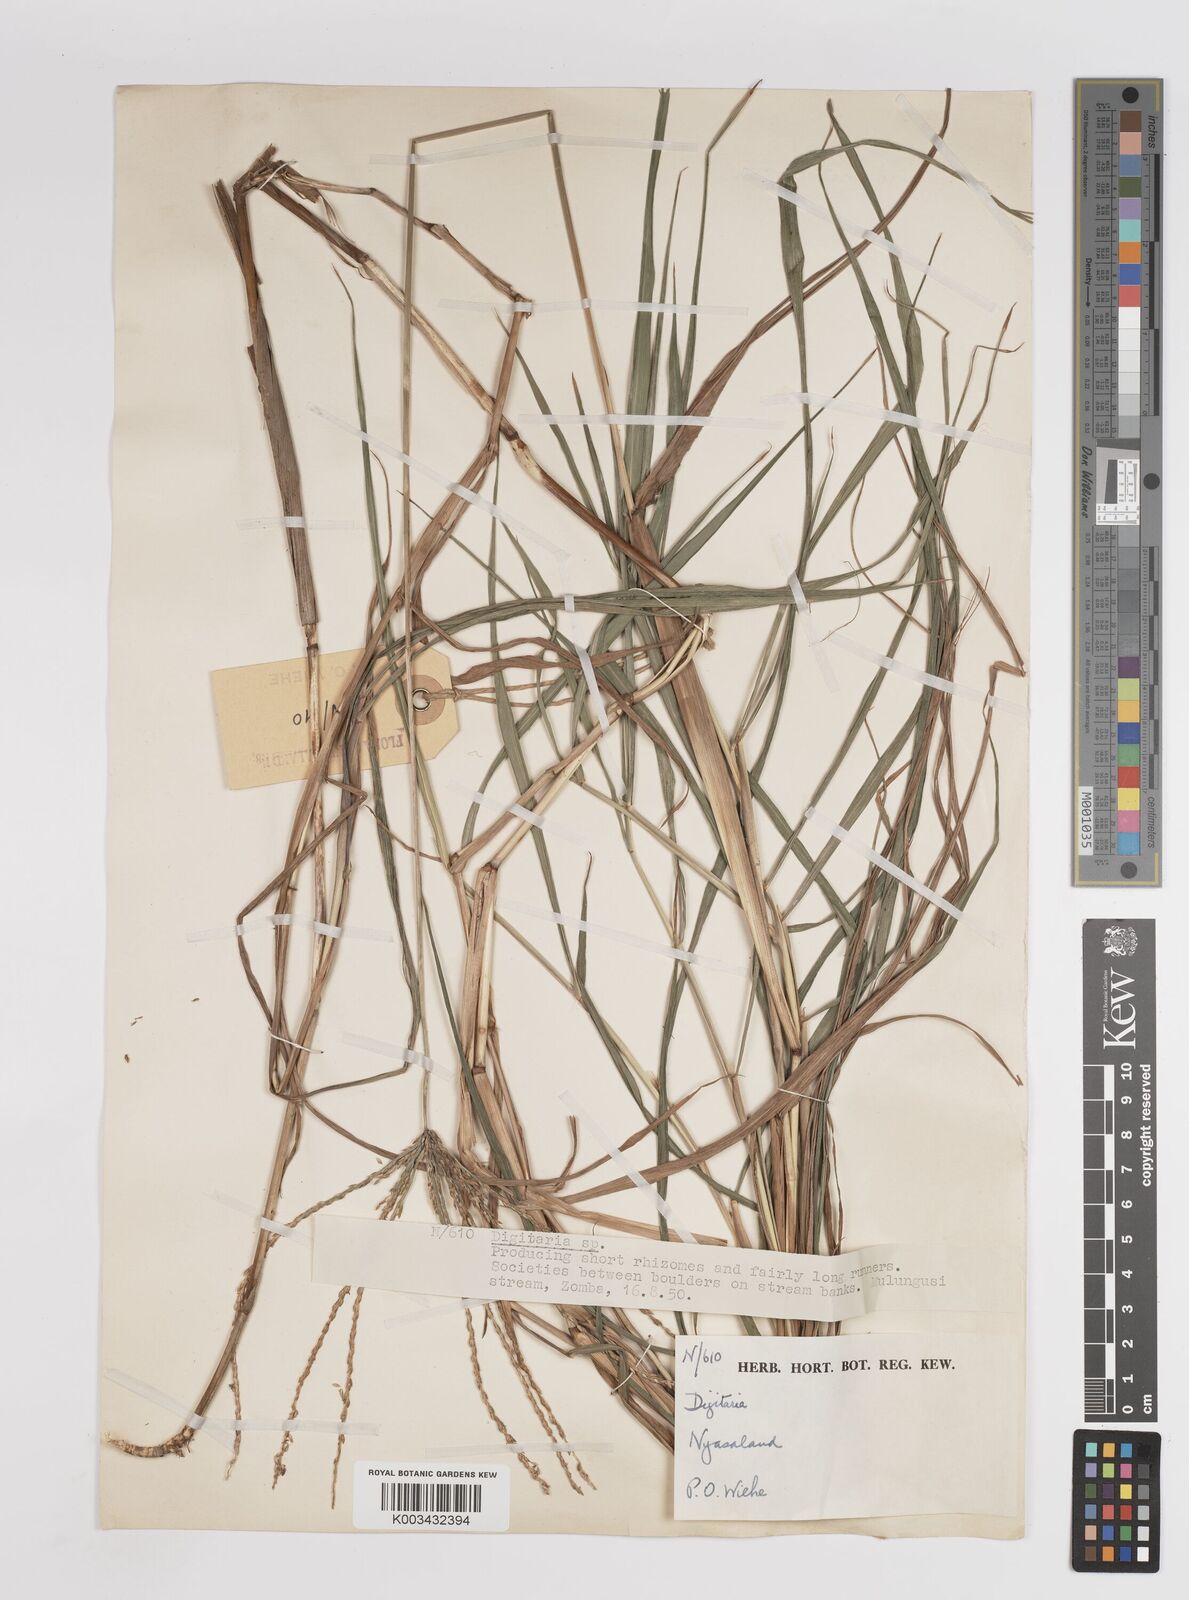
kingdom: Plantae
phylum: Tracheophyta
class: Liliopsida
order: Poales
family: Poaceae
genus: Digitaria
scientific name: Digitaria eriantha
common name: Digitgrass
